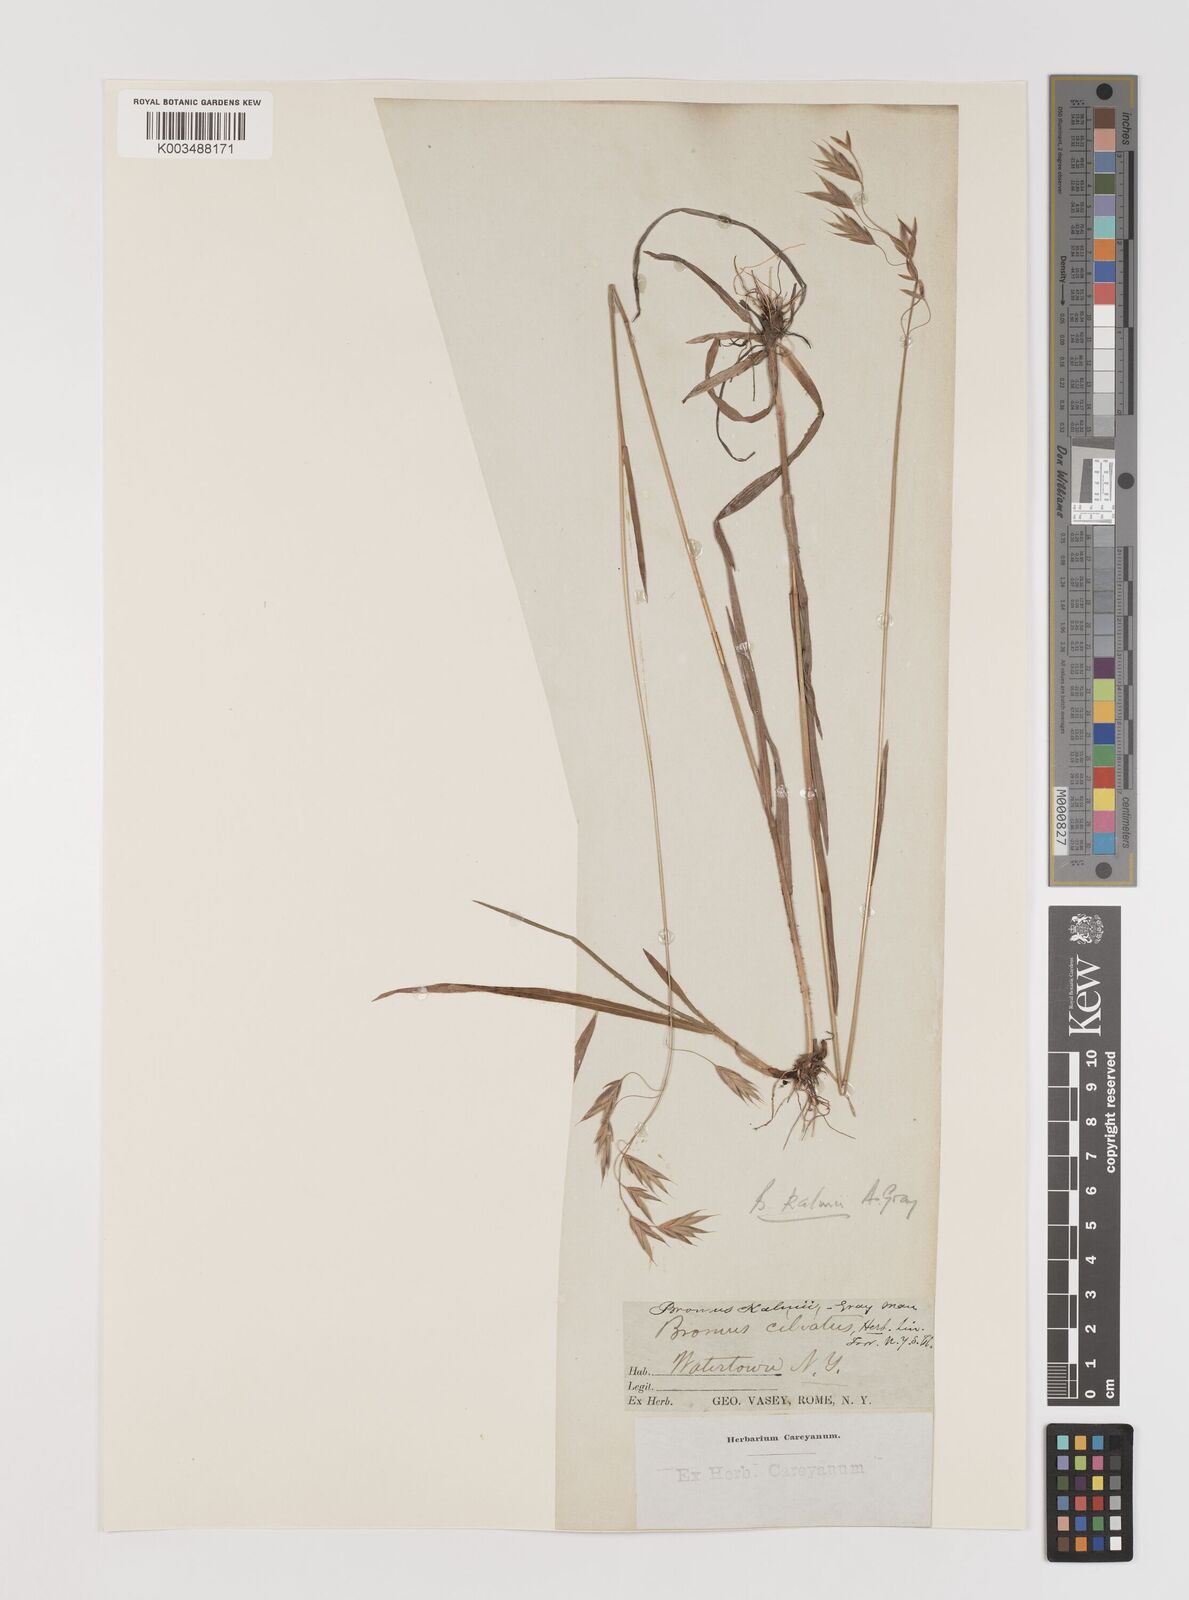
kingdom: Plantae
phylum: Tracheophyta
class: Liliopsida
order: Poales
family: Poaceae
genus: Bromus
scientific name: Bromus kalmii
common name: Kalm brome
